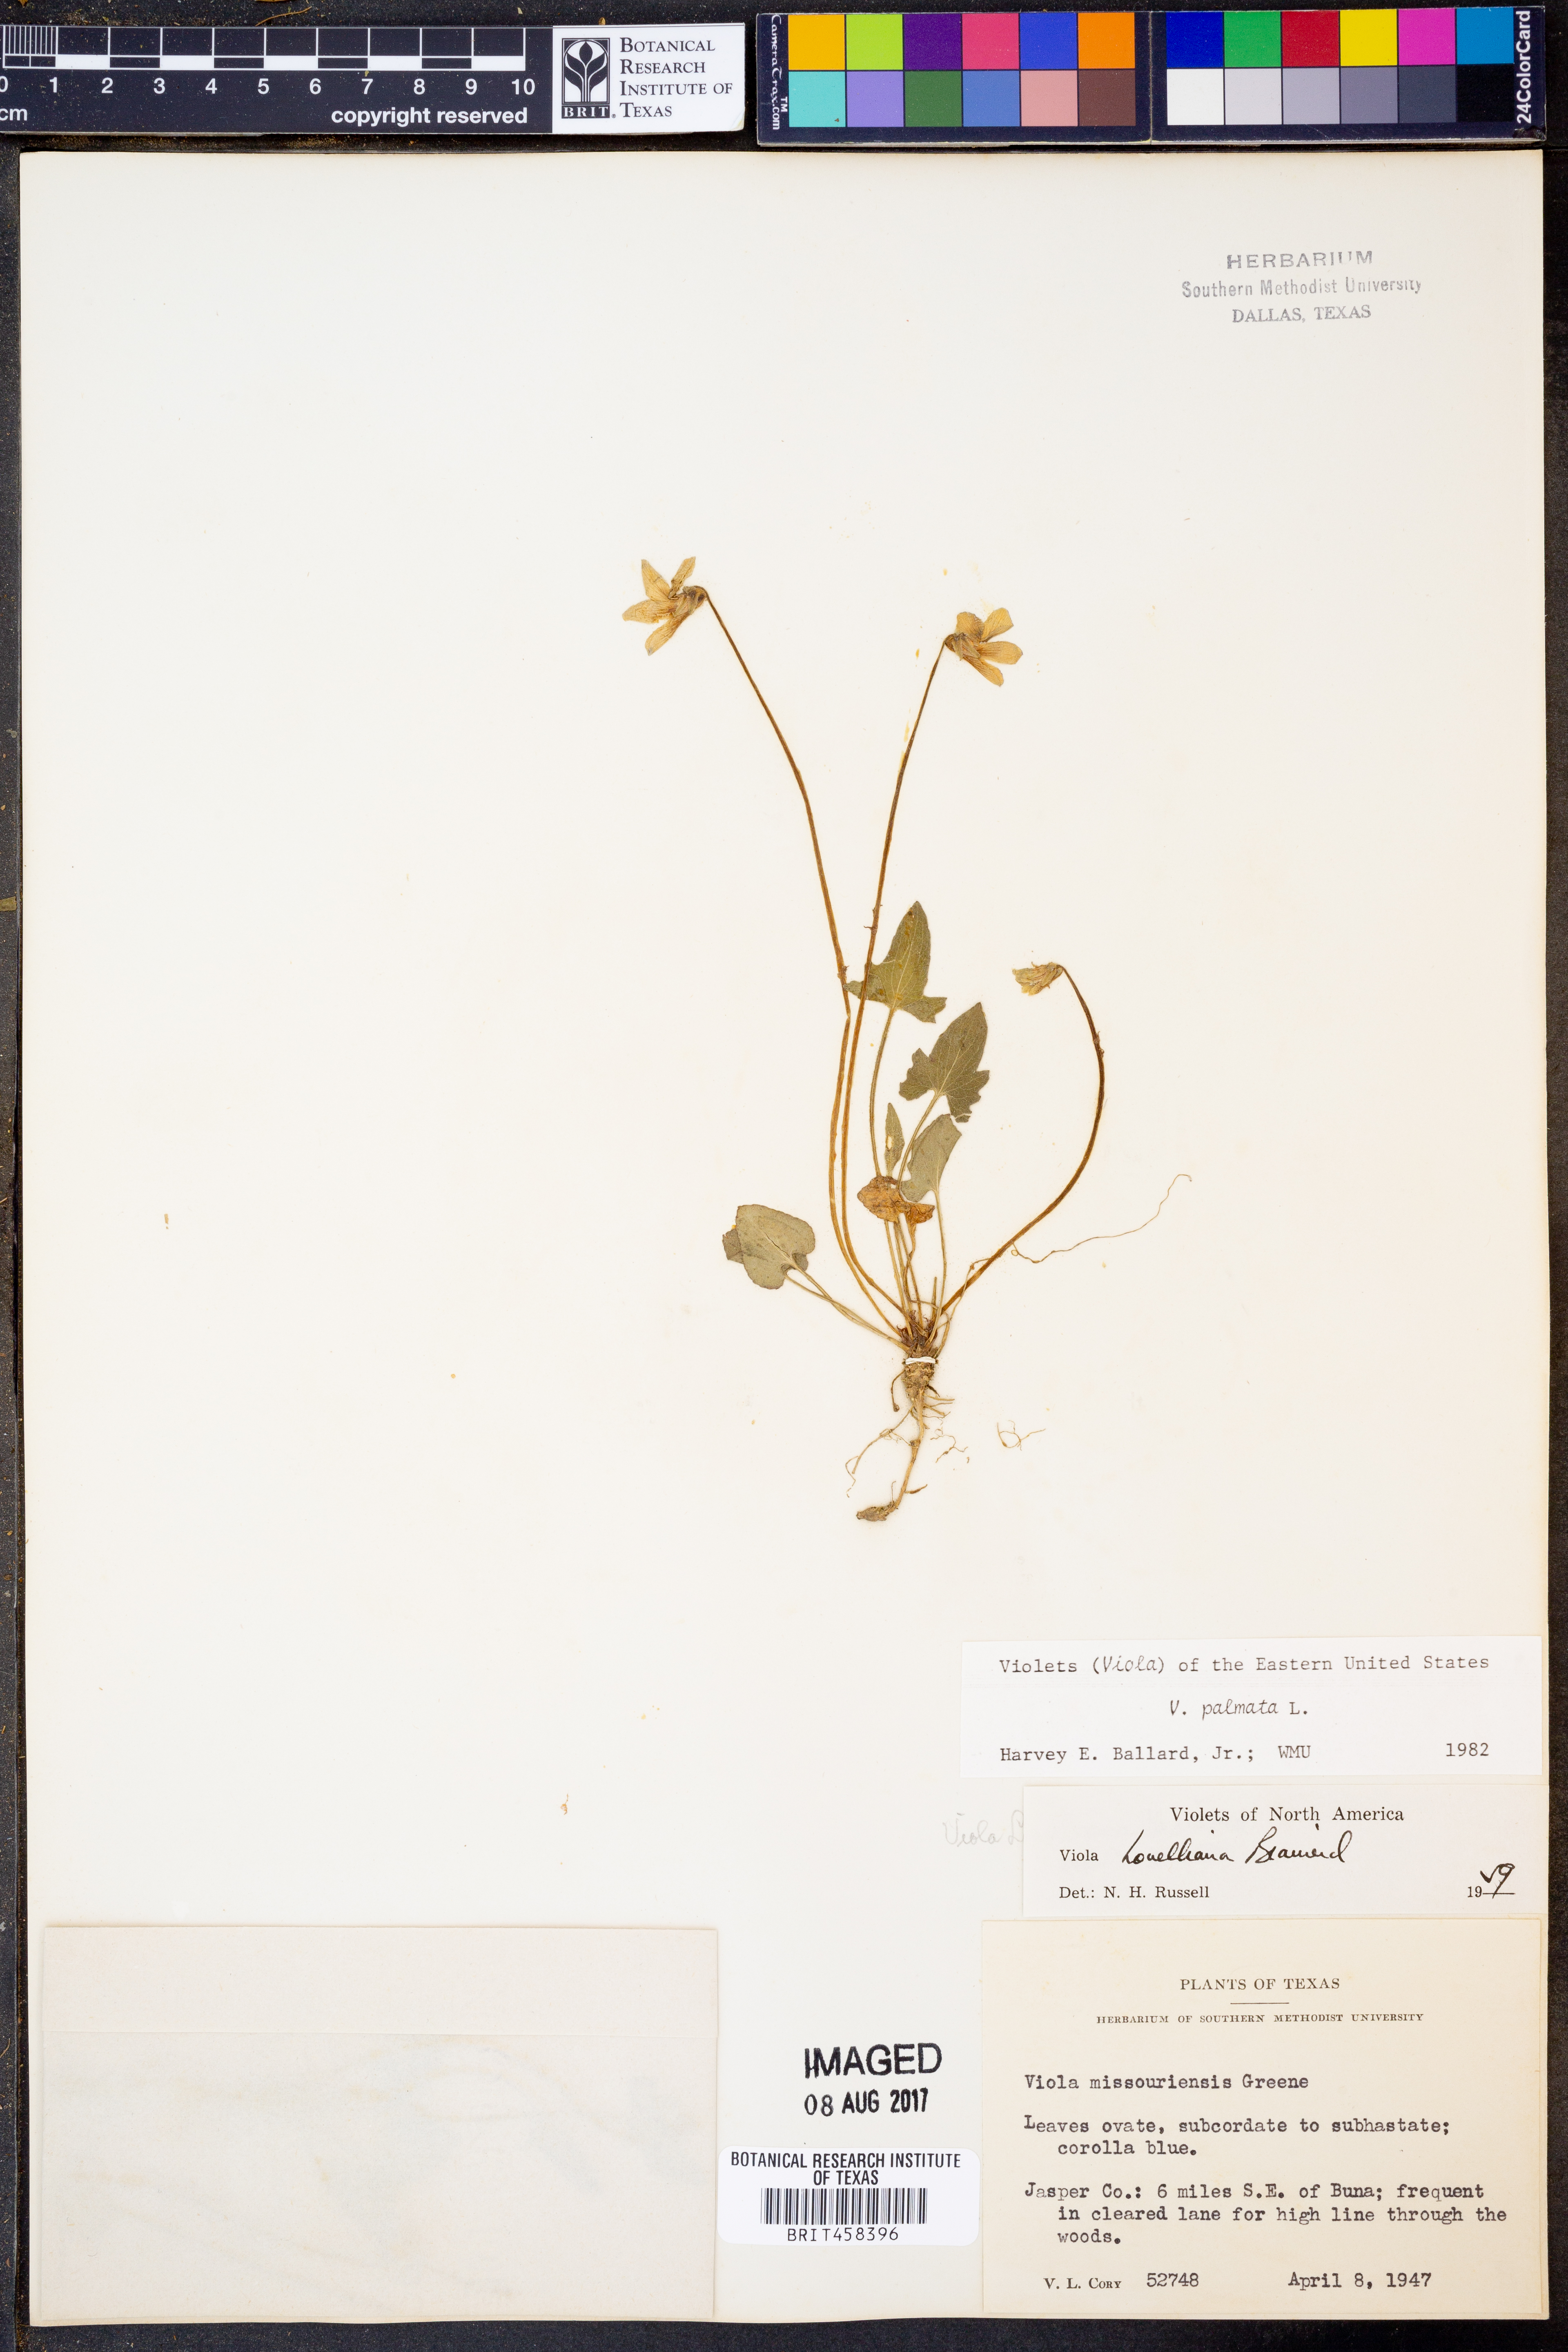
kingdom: Plantae
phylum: Tracheophyta
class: Magnoliopsida
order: Malpighiales
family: Violaceae
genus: Viola
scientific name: Viola palmata
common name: Early blue violet
